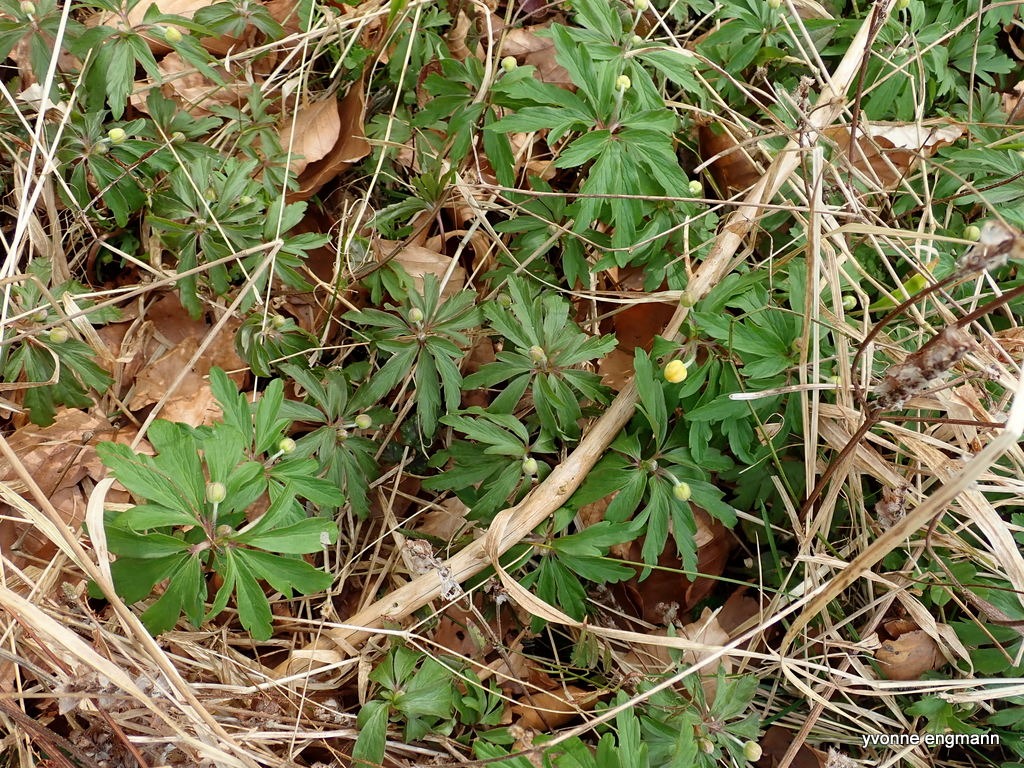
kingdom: Plantae
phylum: Tracheophyta
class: Magnoliopsida
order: Ranunculales
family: Ranunculaceae
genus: Anemone
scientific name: Anemone ranunculoides
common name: Gul anemone
